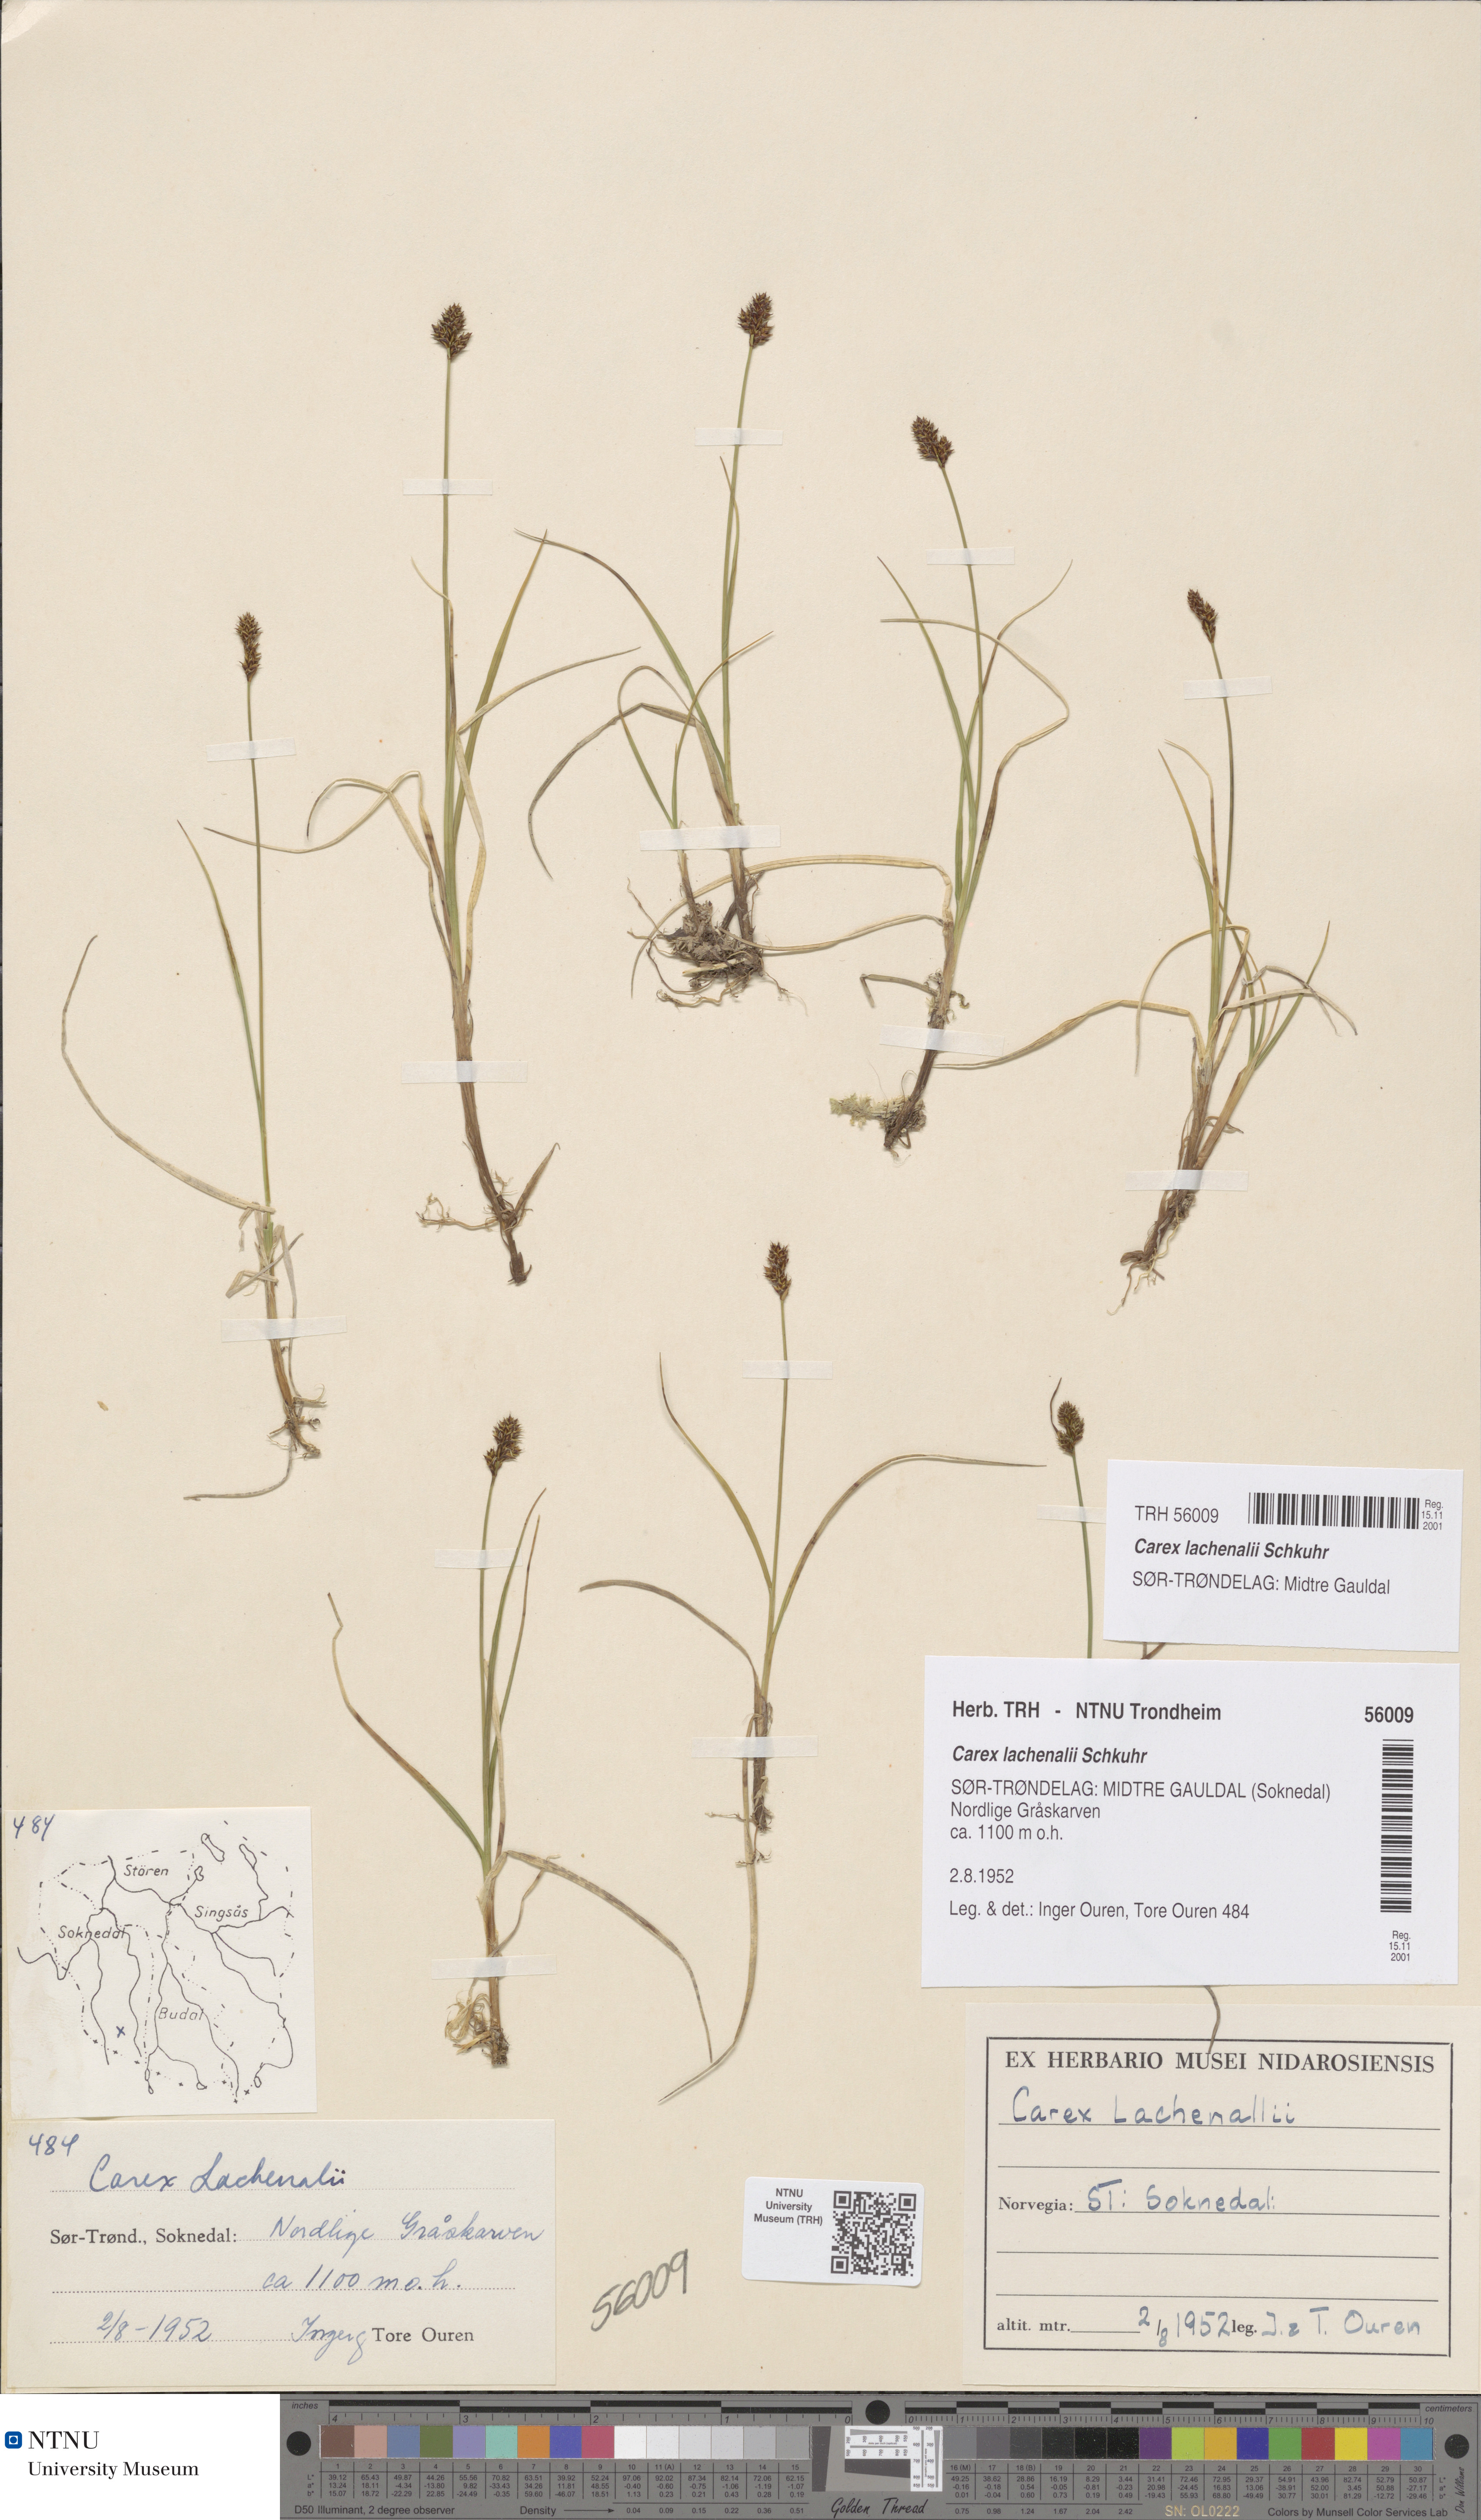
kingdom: Plantae
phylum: Tracheophyta
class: Liliopsida
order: Poales
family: Cyperaceae
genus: Carex
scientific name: Carex lachenalii
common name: Hare's-foot sedge
